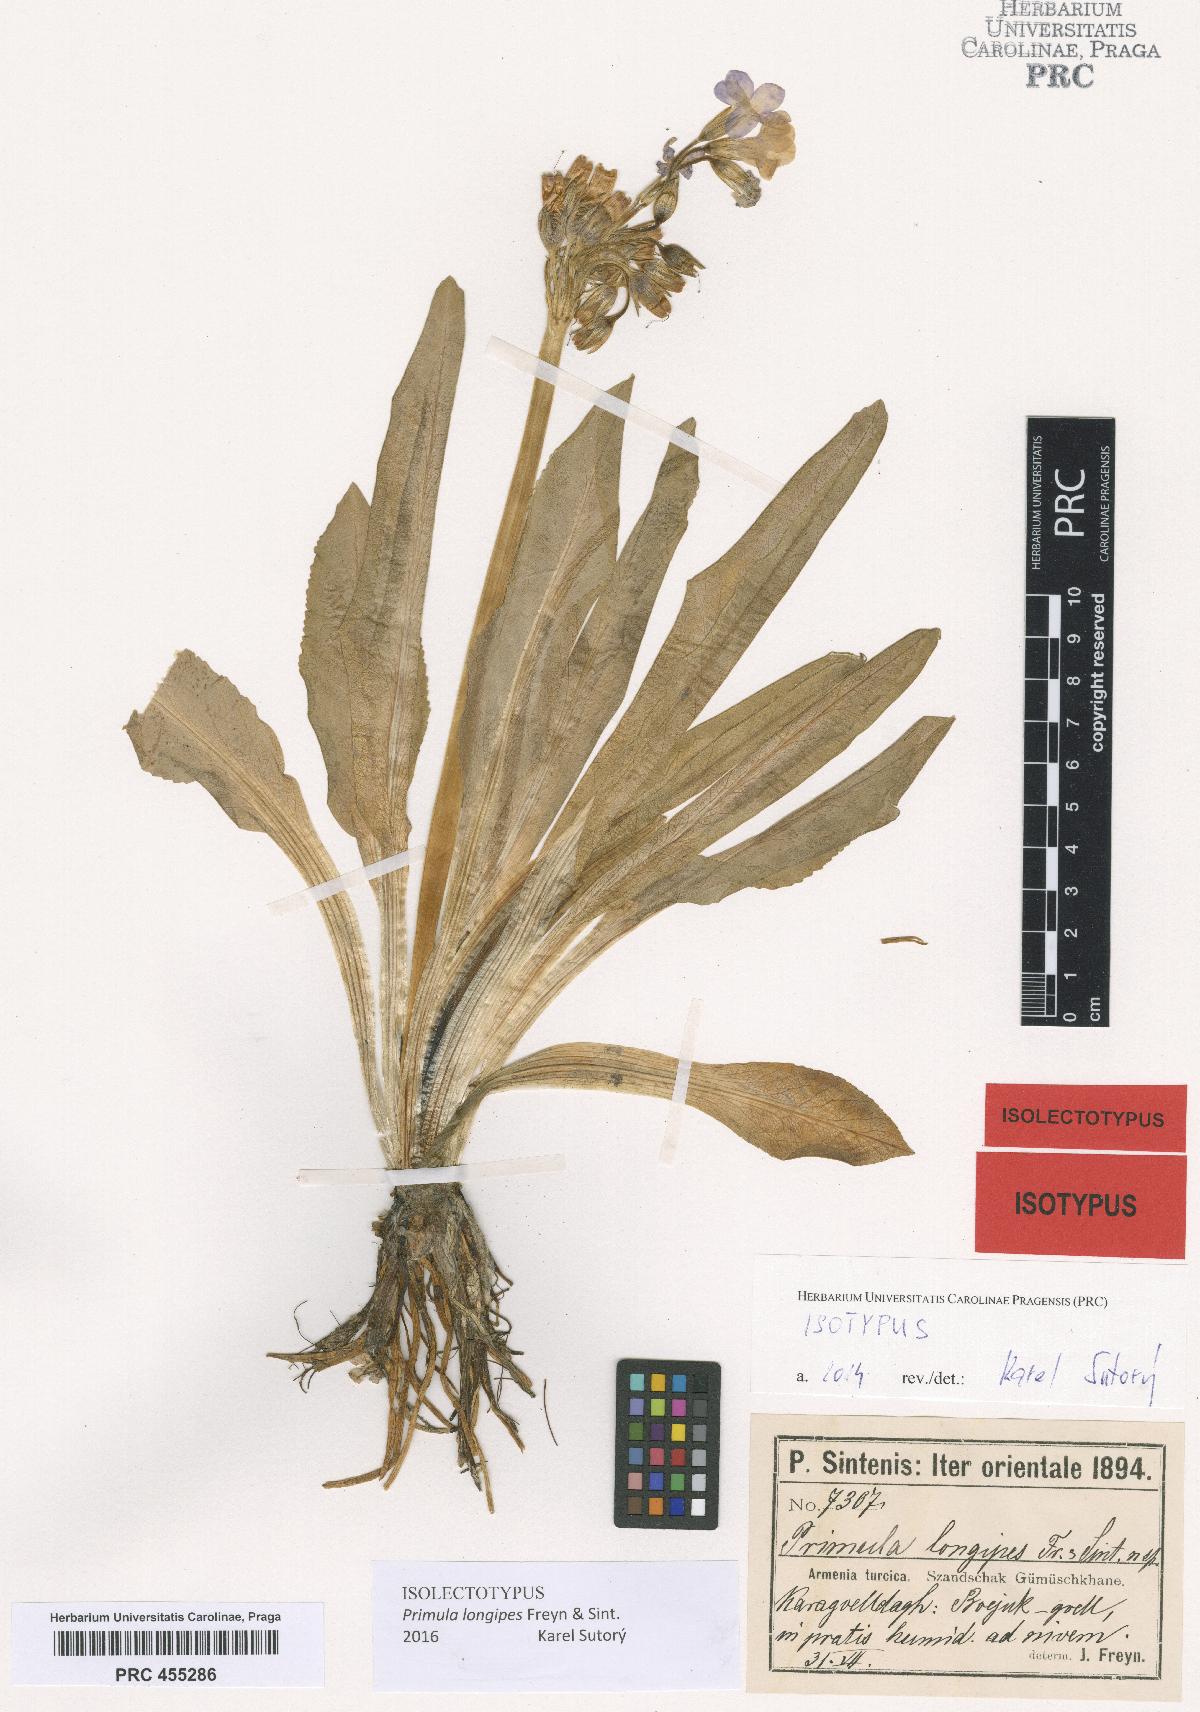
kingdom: Plantae
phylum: Tracheophyta
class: Magnoliopsida
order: Ericales
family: Primulaceae
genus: Primula
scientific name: Primula longipes
